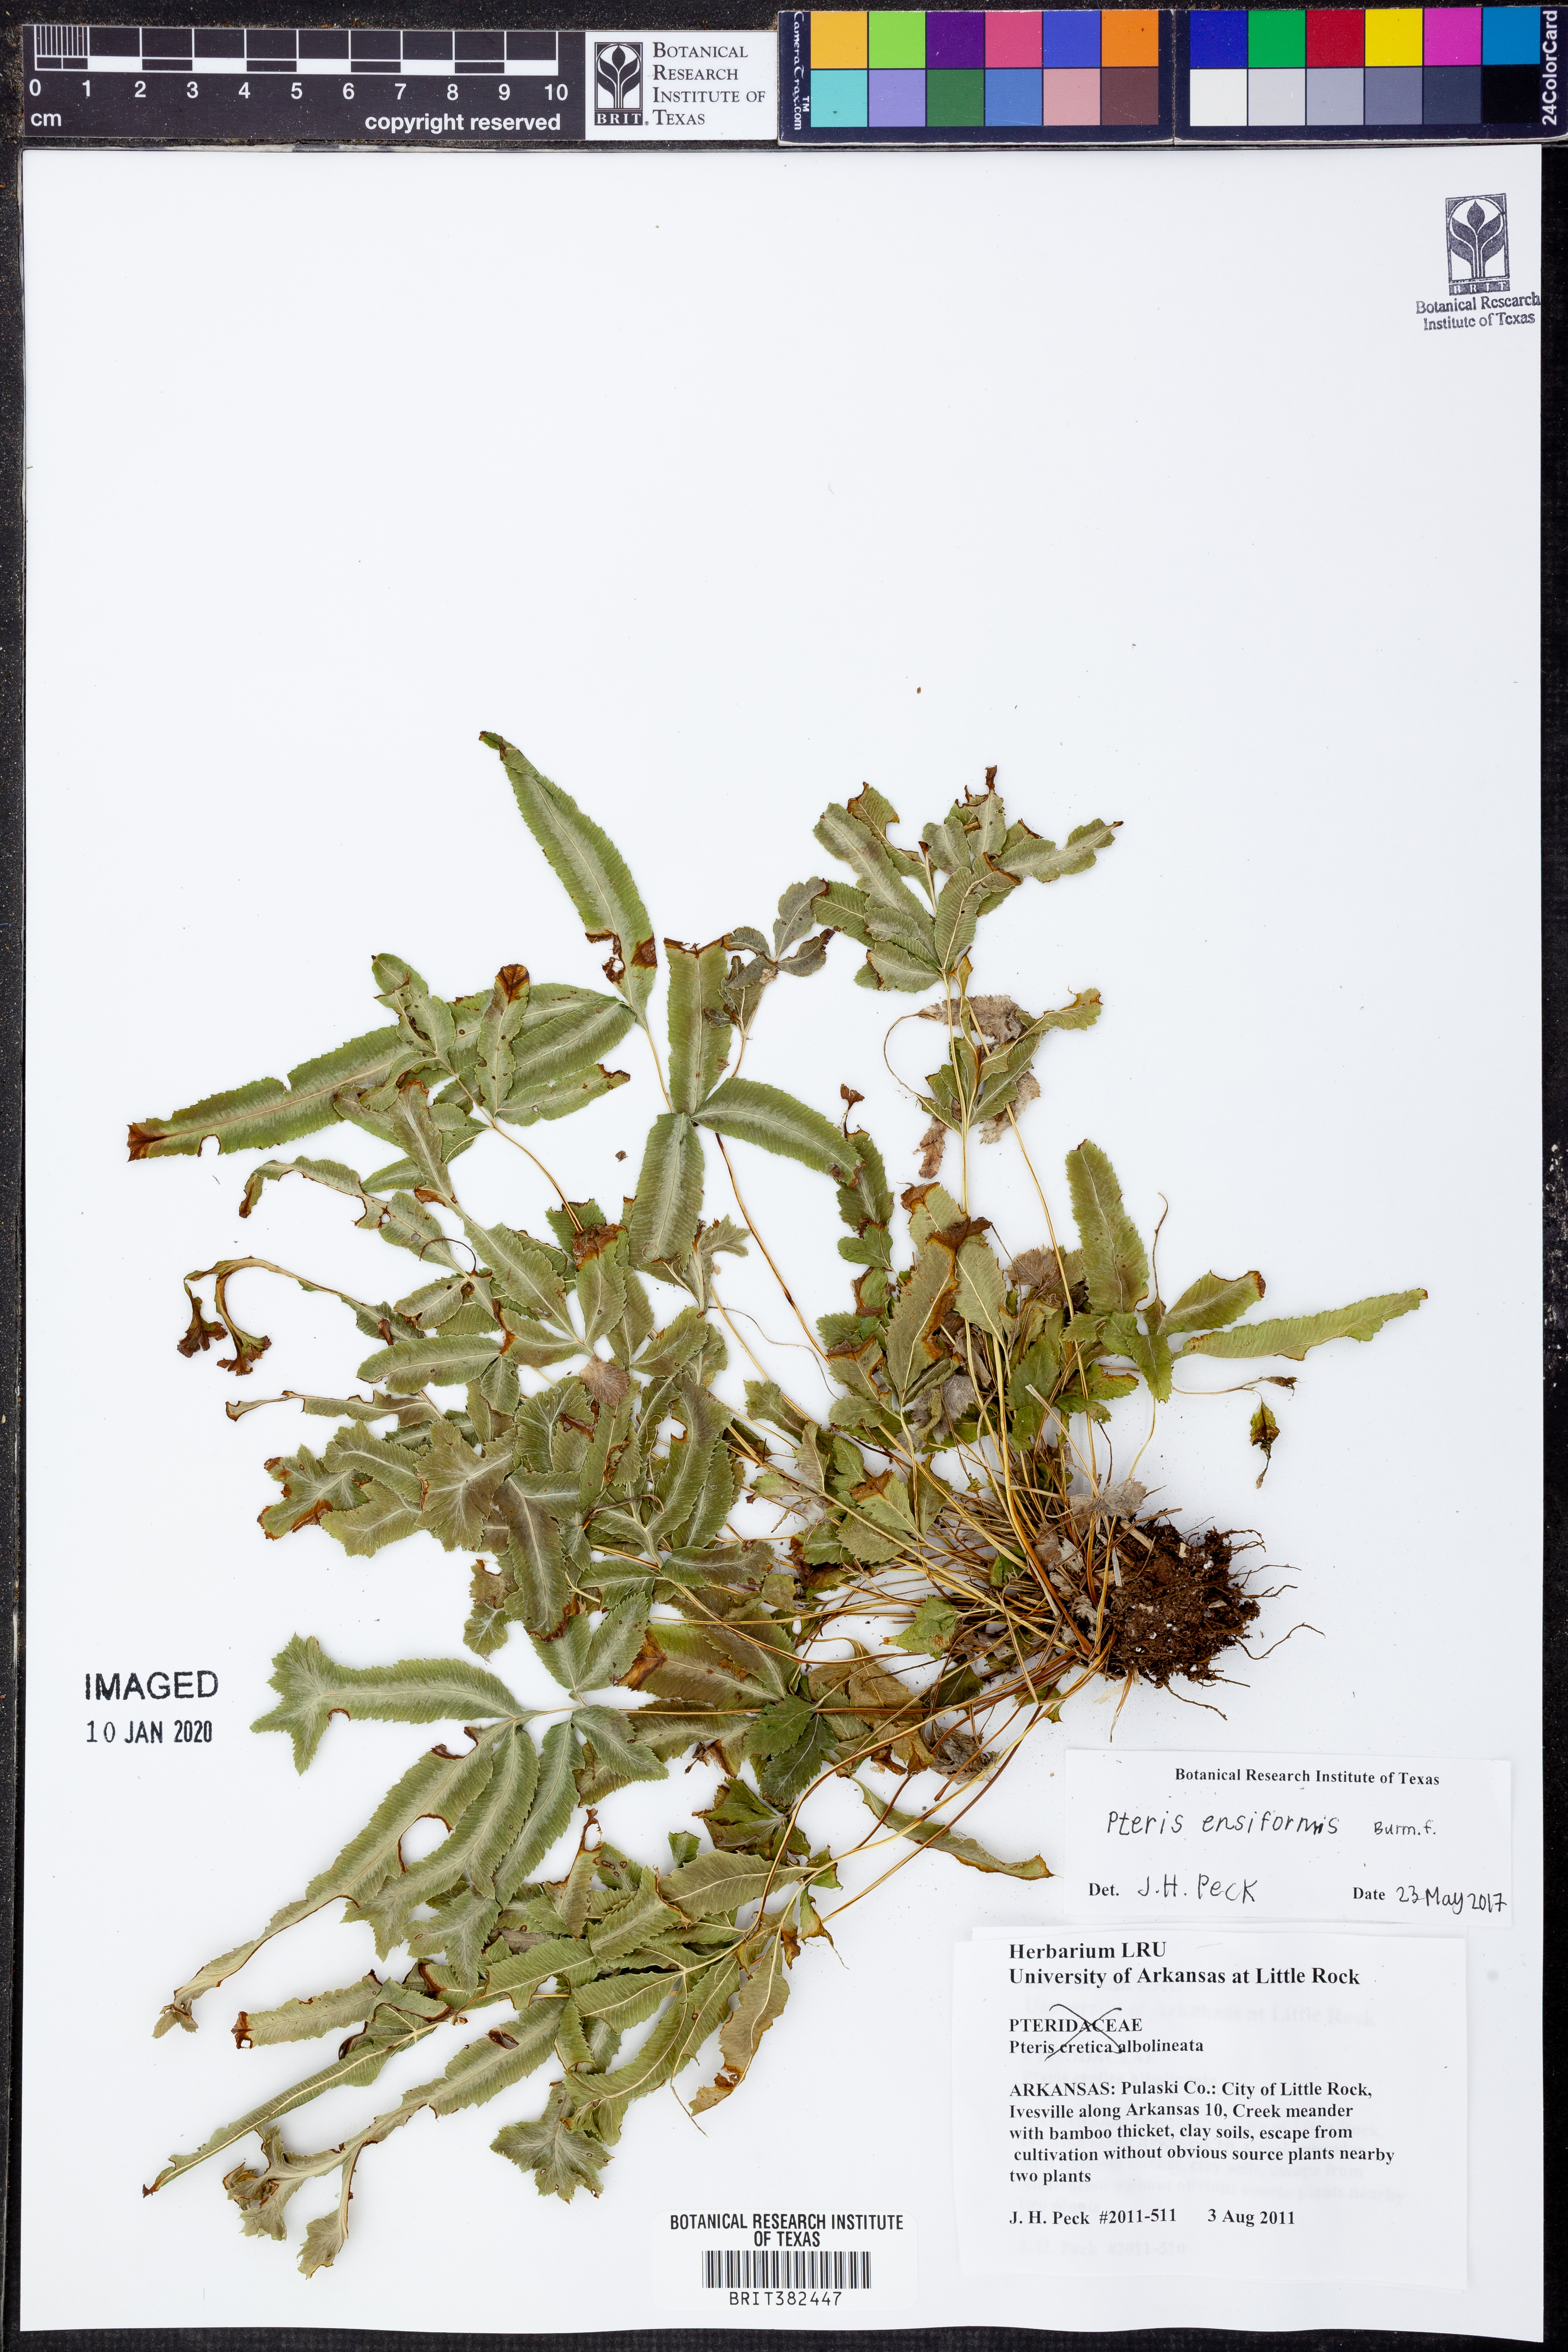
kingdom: Plantae
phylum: Tracheophyta
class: Polypodiopsida
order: Polypodiales
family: Pteridaceae
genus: Pteris
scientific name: Pteris ensiformis
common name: Sword brake
